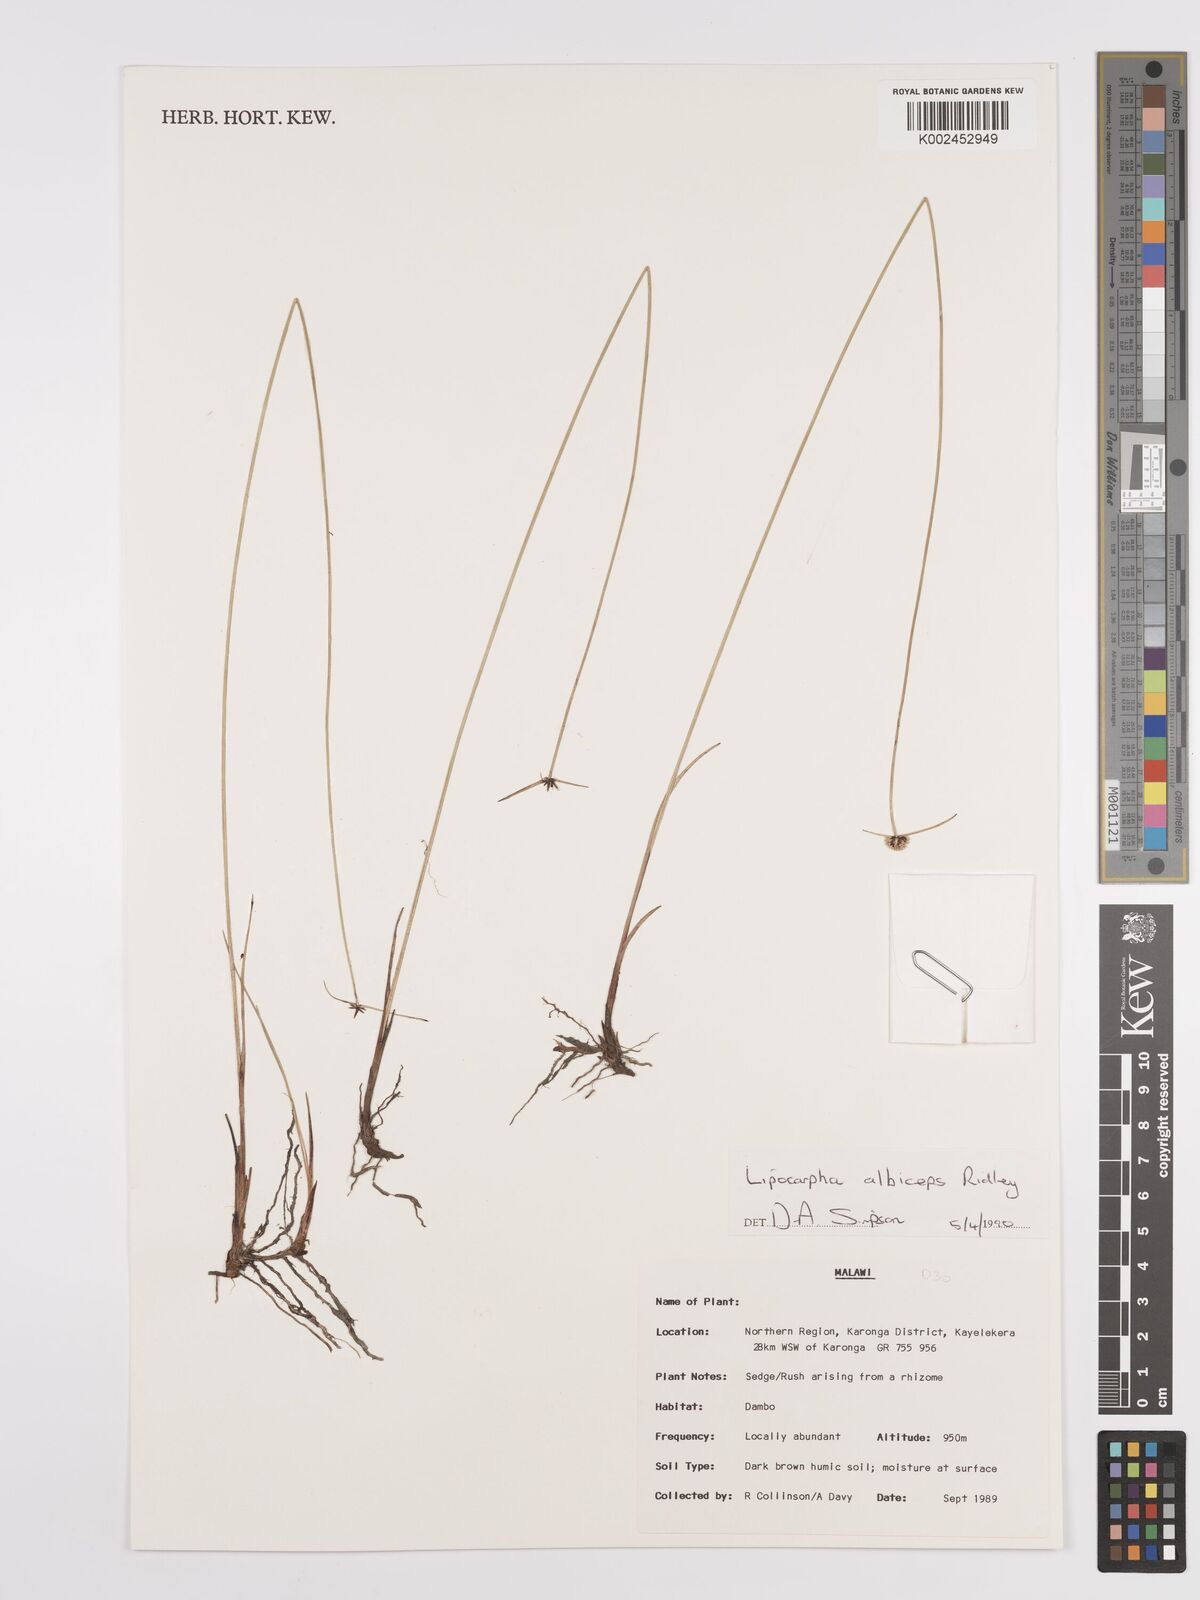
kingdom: Plantae
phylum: Tracheophyta
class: Liliopsida
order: Poales
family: Cyperaceae
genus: Cyperus
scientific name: Cyperus albiceps
